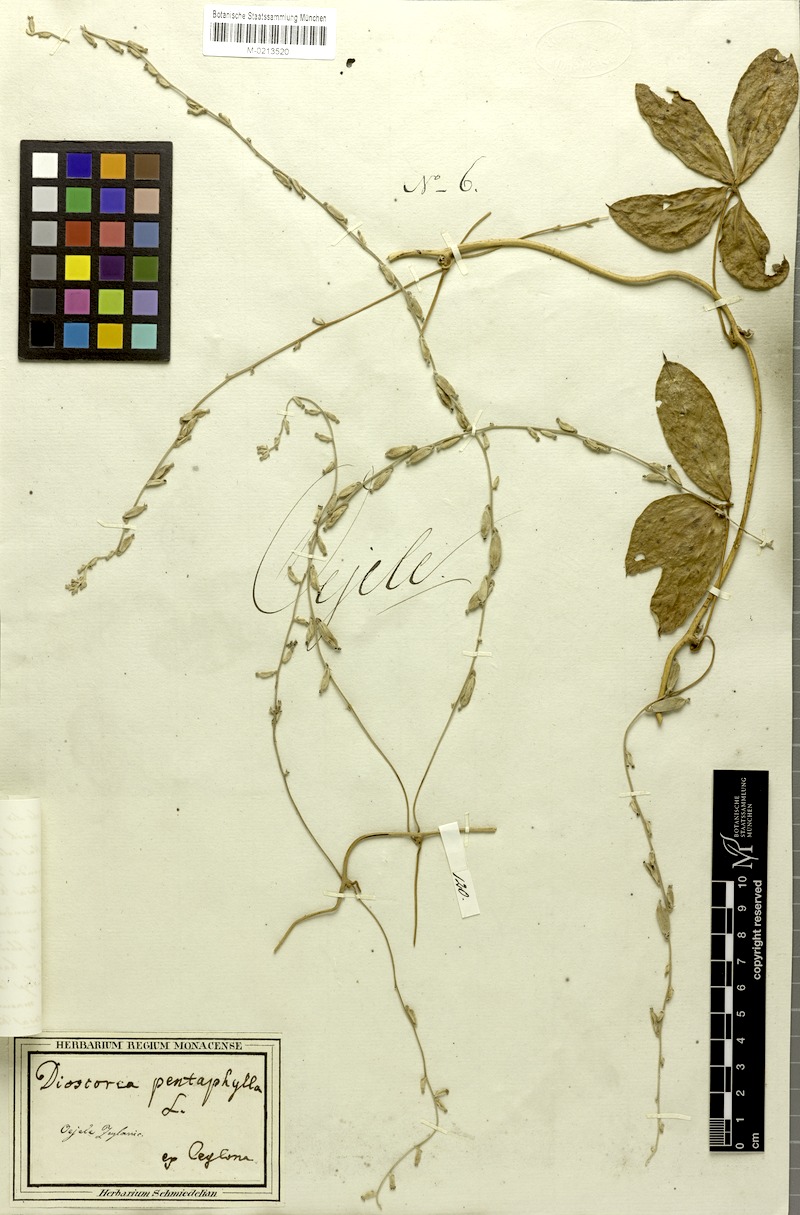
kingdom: Plantae
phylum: Tracheophyta
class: Liliopsida
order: Dioscoreales
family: Dioscoreaceae
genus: Dioscorea
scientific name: Dioscorea tomentosa
